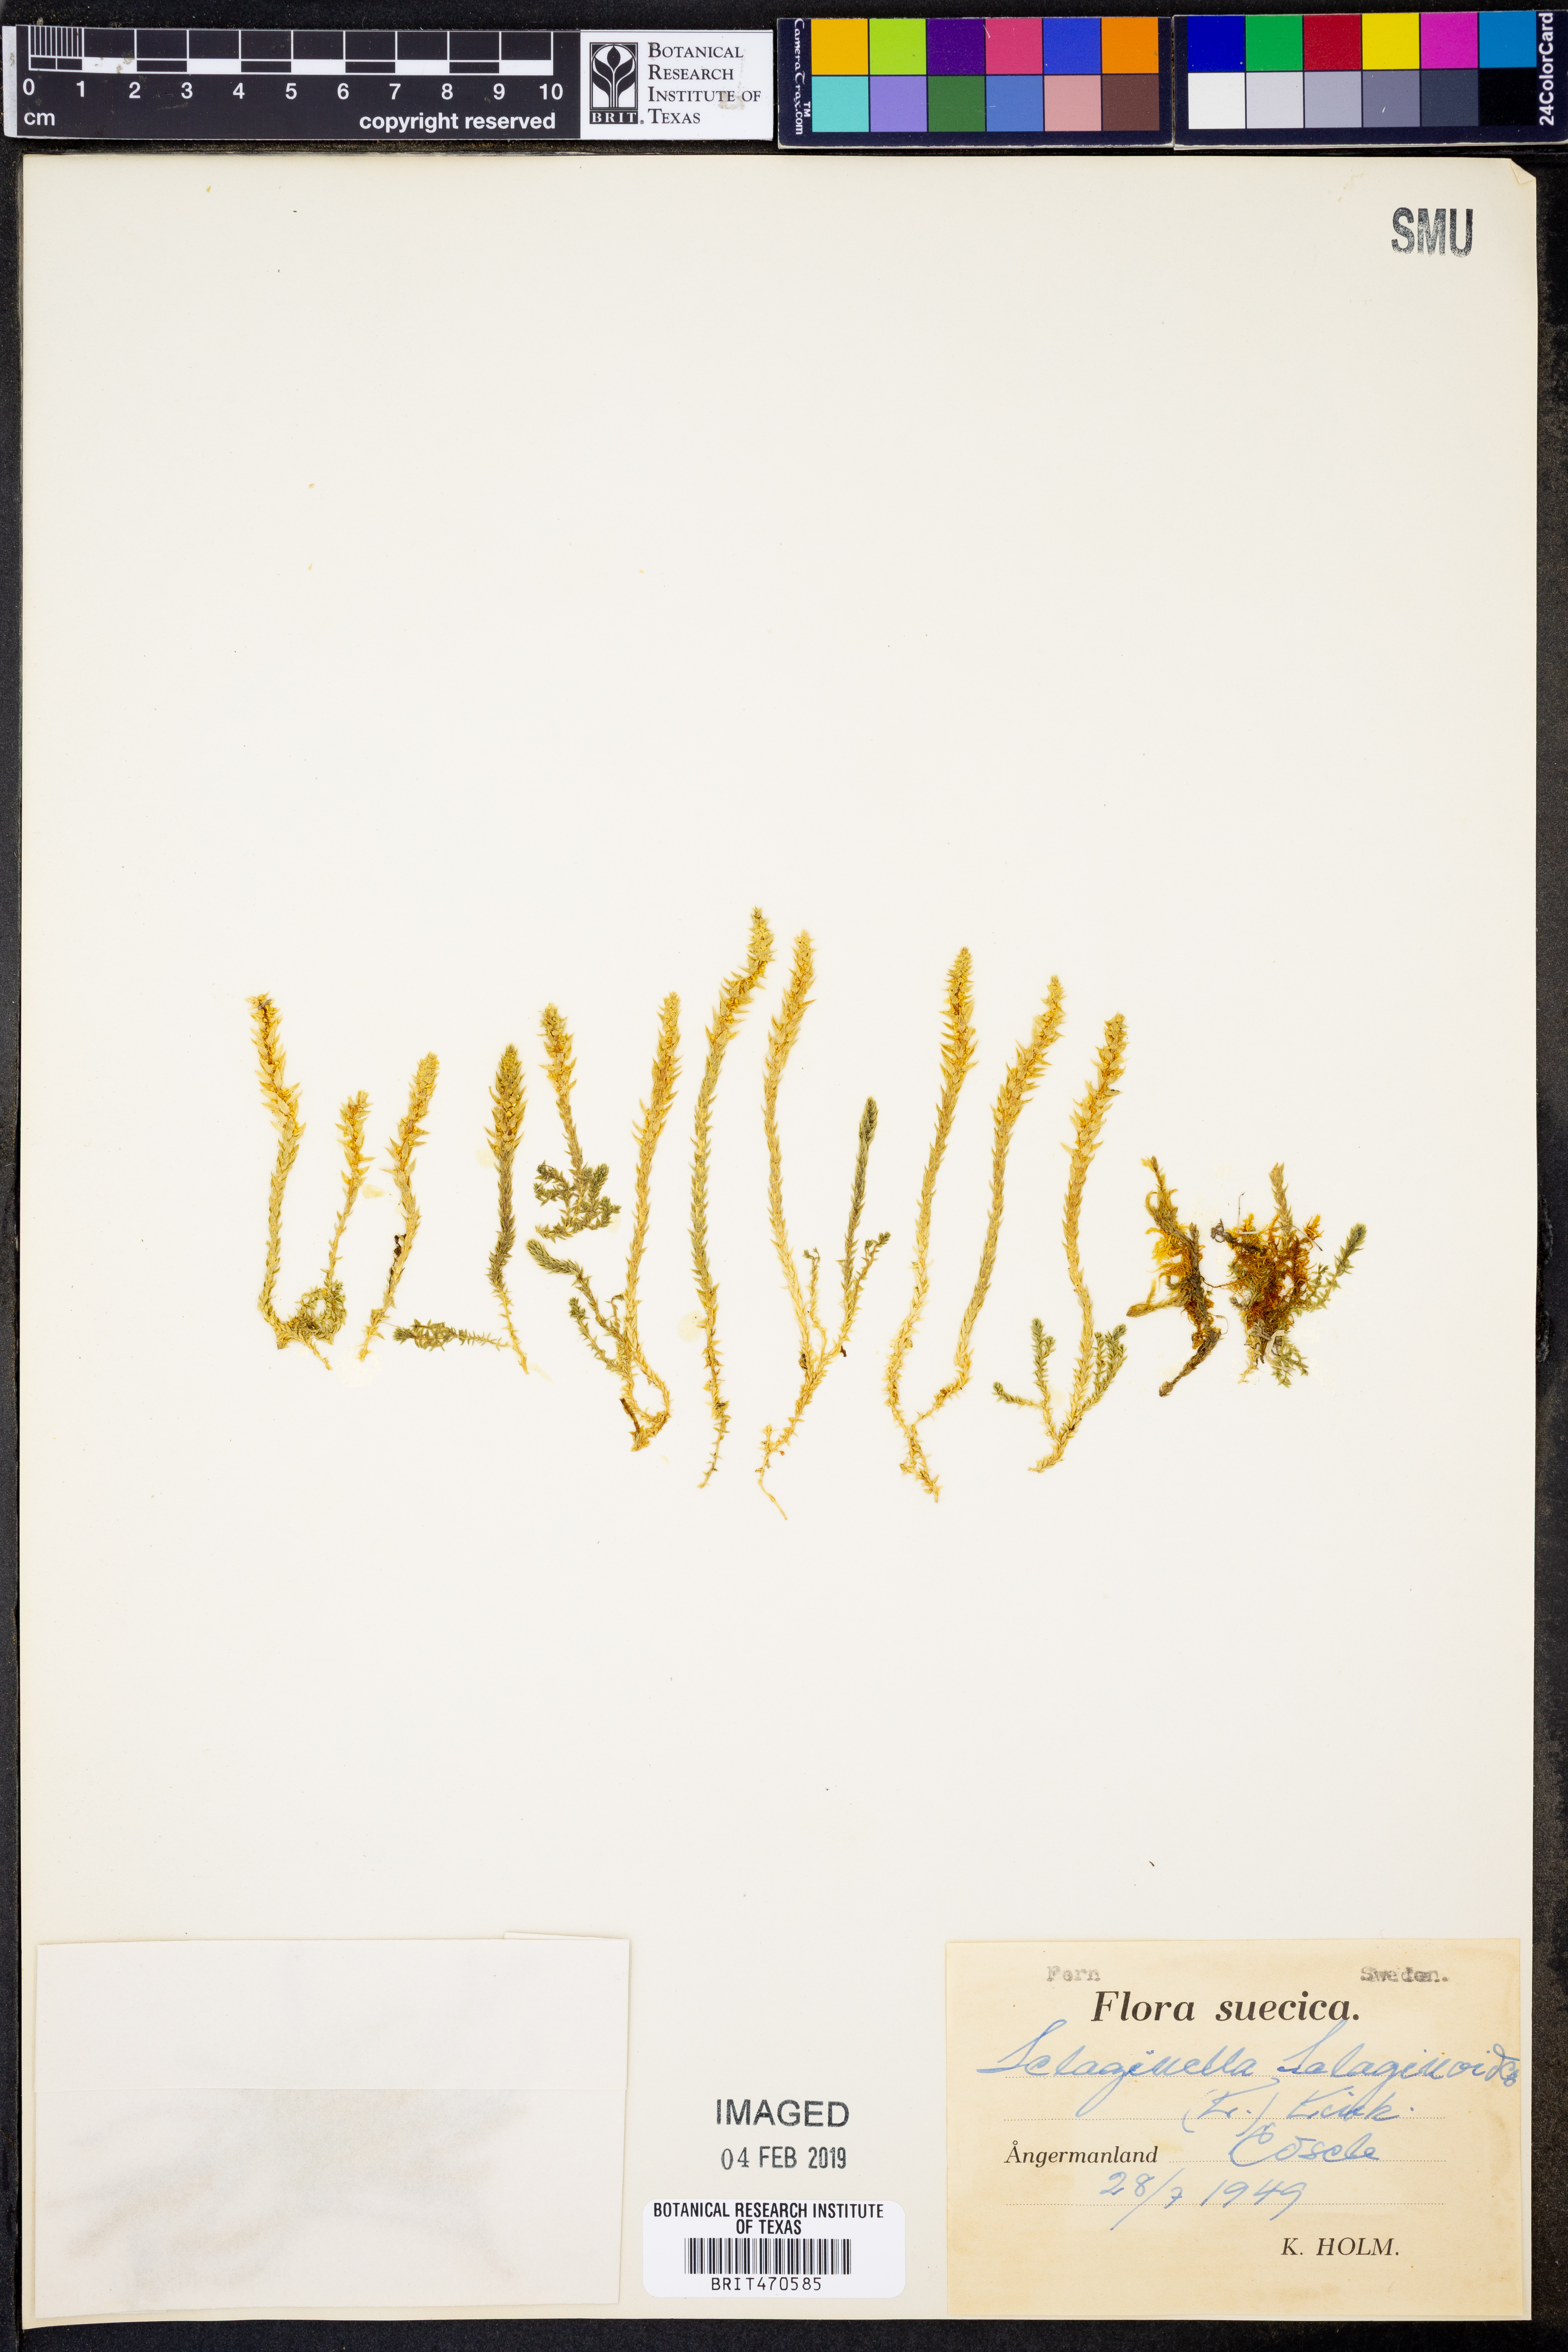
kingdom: Plantae
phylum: Tracheophyta
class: Lycopodiopsida
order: Selaginellales
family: Selaginellaceae
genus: Selaginella
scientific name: Selaginella selaginoides
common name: Prickly mountain-moss
